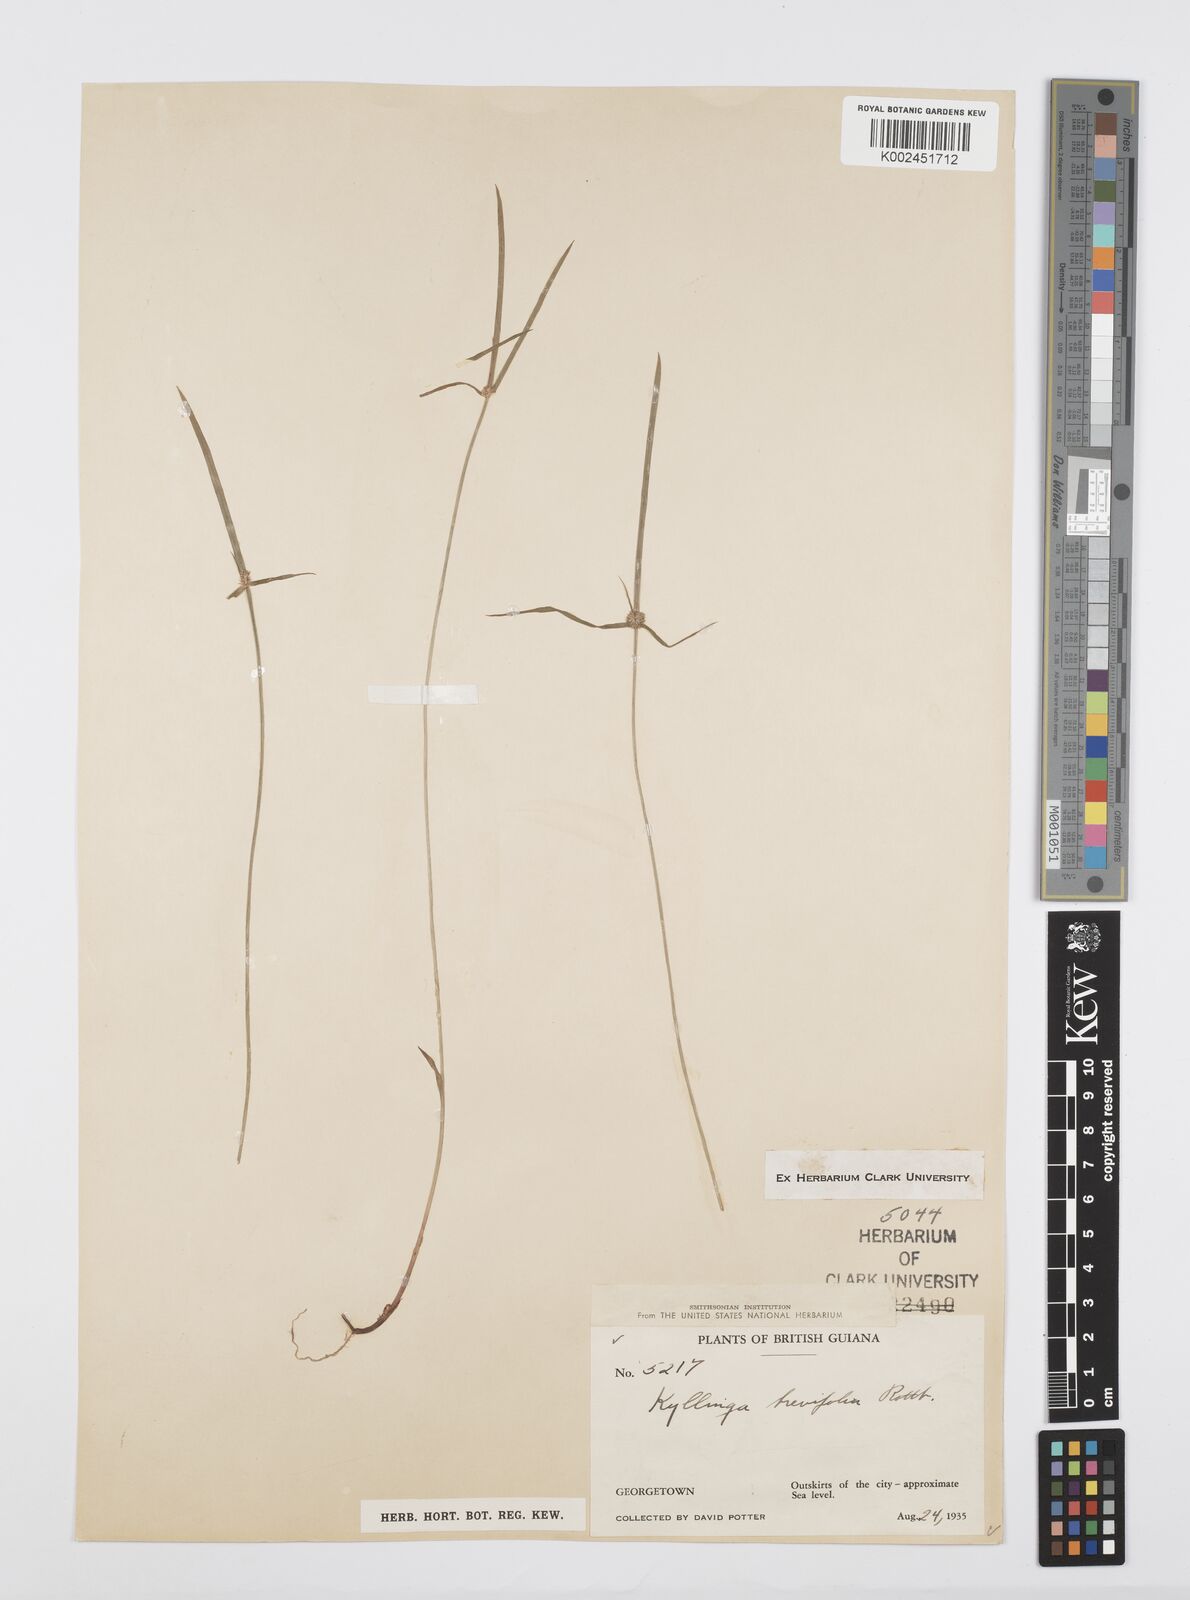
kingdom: Plantae
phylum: Tracheophyta
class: Liliopsida
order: Poales
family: Cyperaceae
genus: Cyperus
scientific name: Cyperus brevifolius
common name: Globe kyllinga
